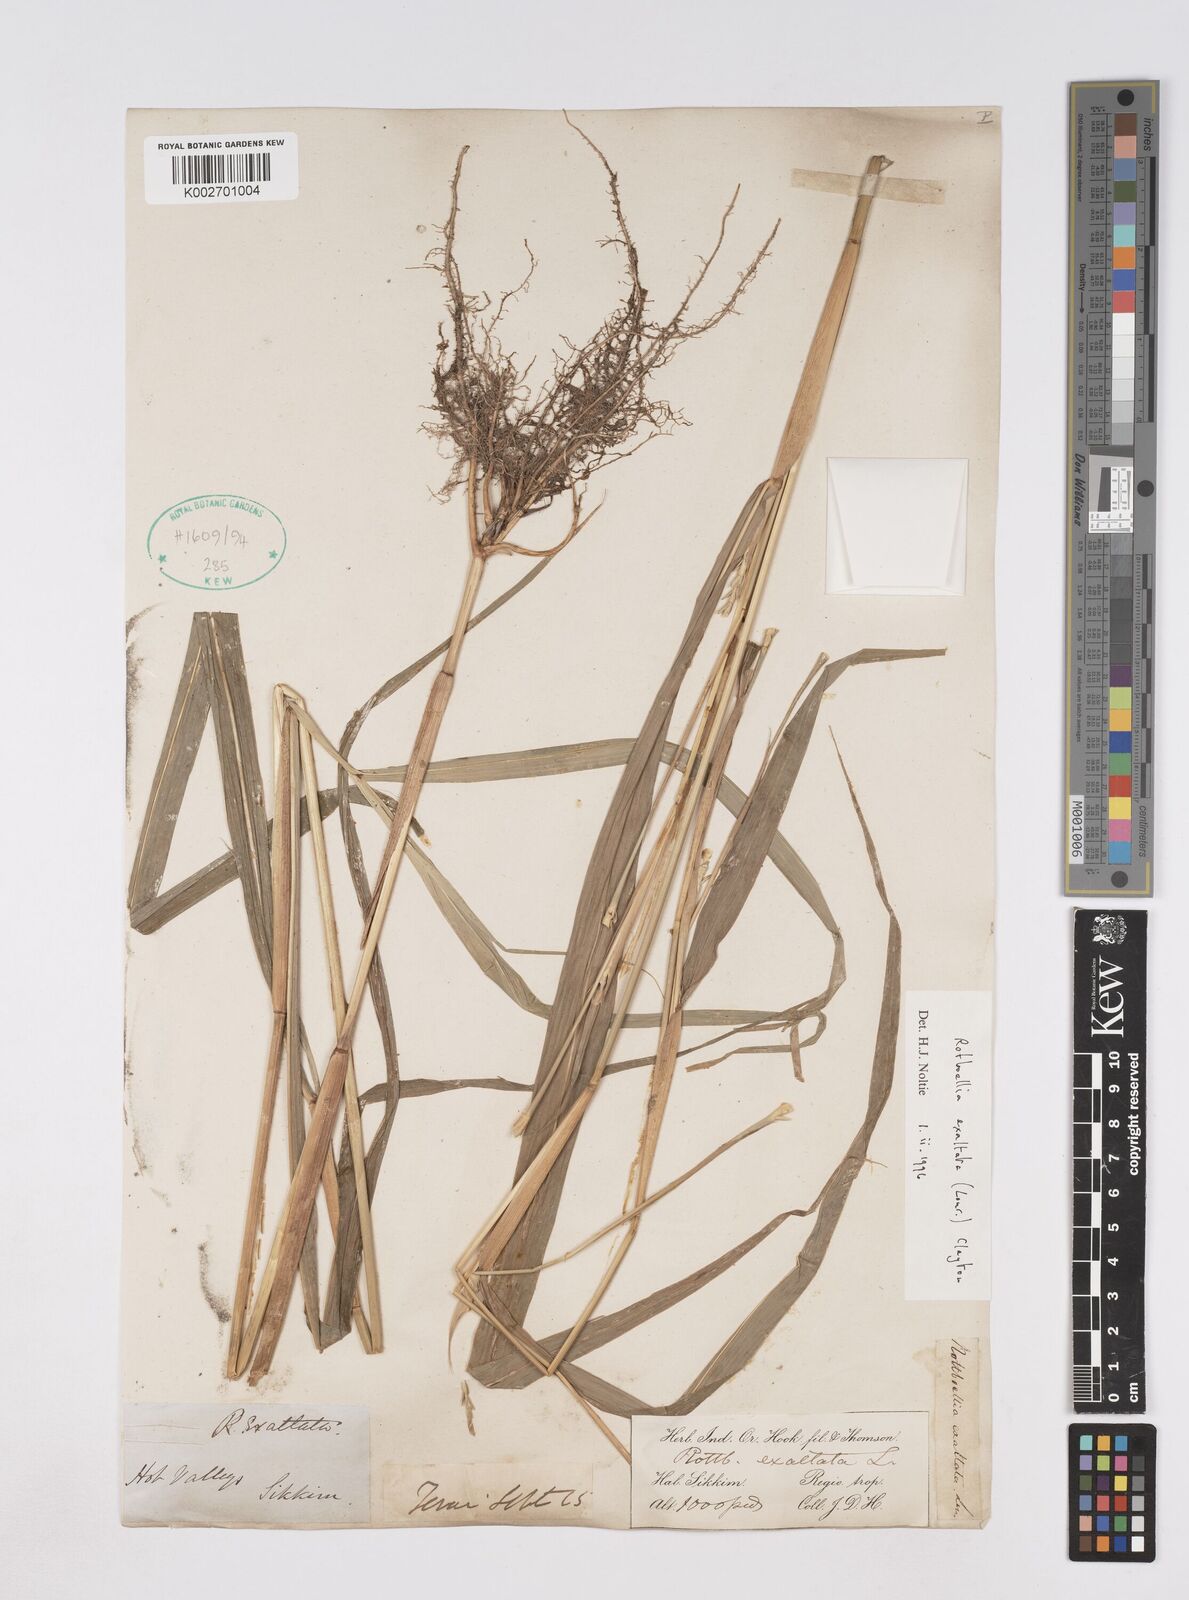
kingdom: Plantae
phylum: Tracheophyta
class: Liliopsida
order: Poales
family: Poaceae
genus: Ophiuros
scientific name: Ophiuros exaltatus
